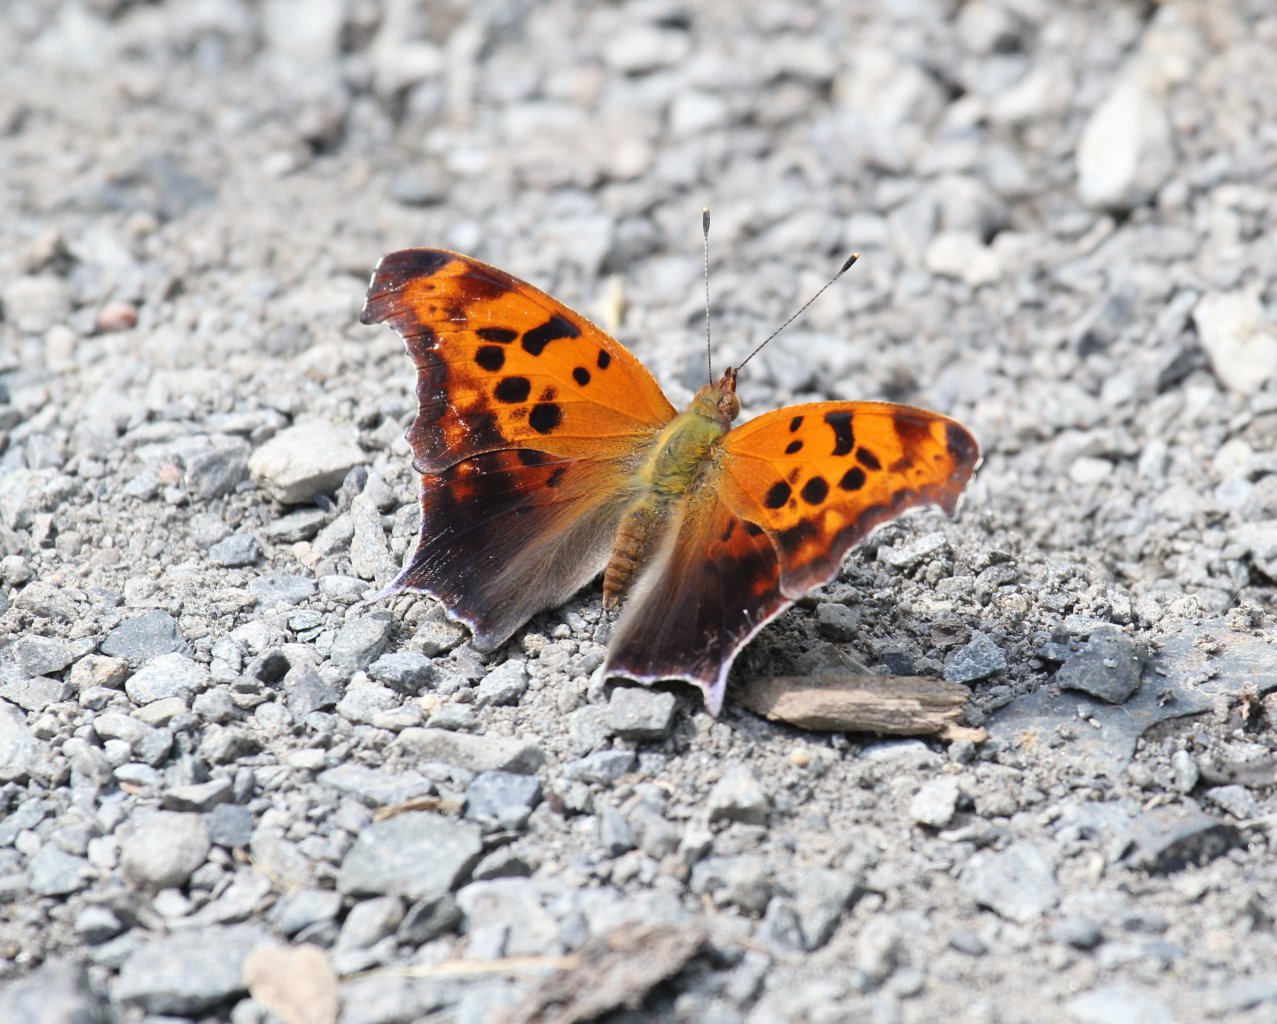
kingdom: Animalia
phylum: Arthropoda
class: Insecta
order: Lepidoptera
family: Nymphalidae
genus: Polygonia
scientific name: Polygonia interrogationis
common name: Question Mark
